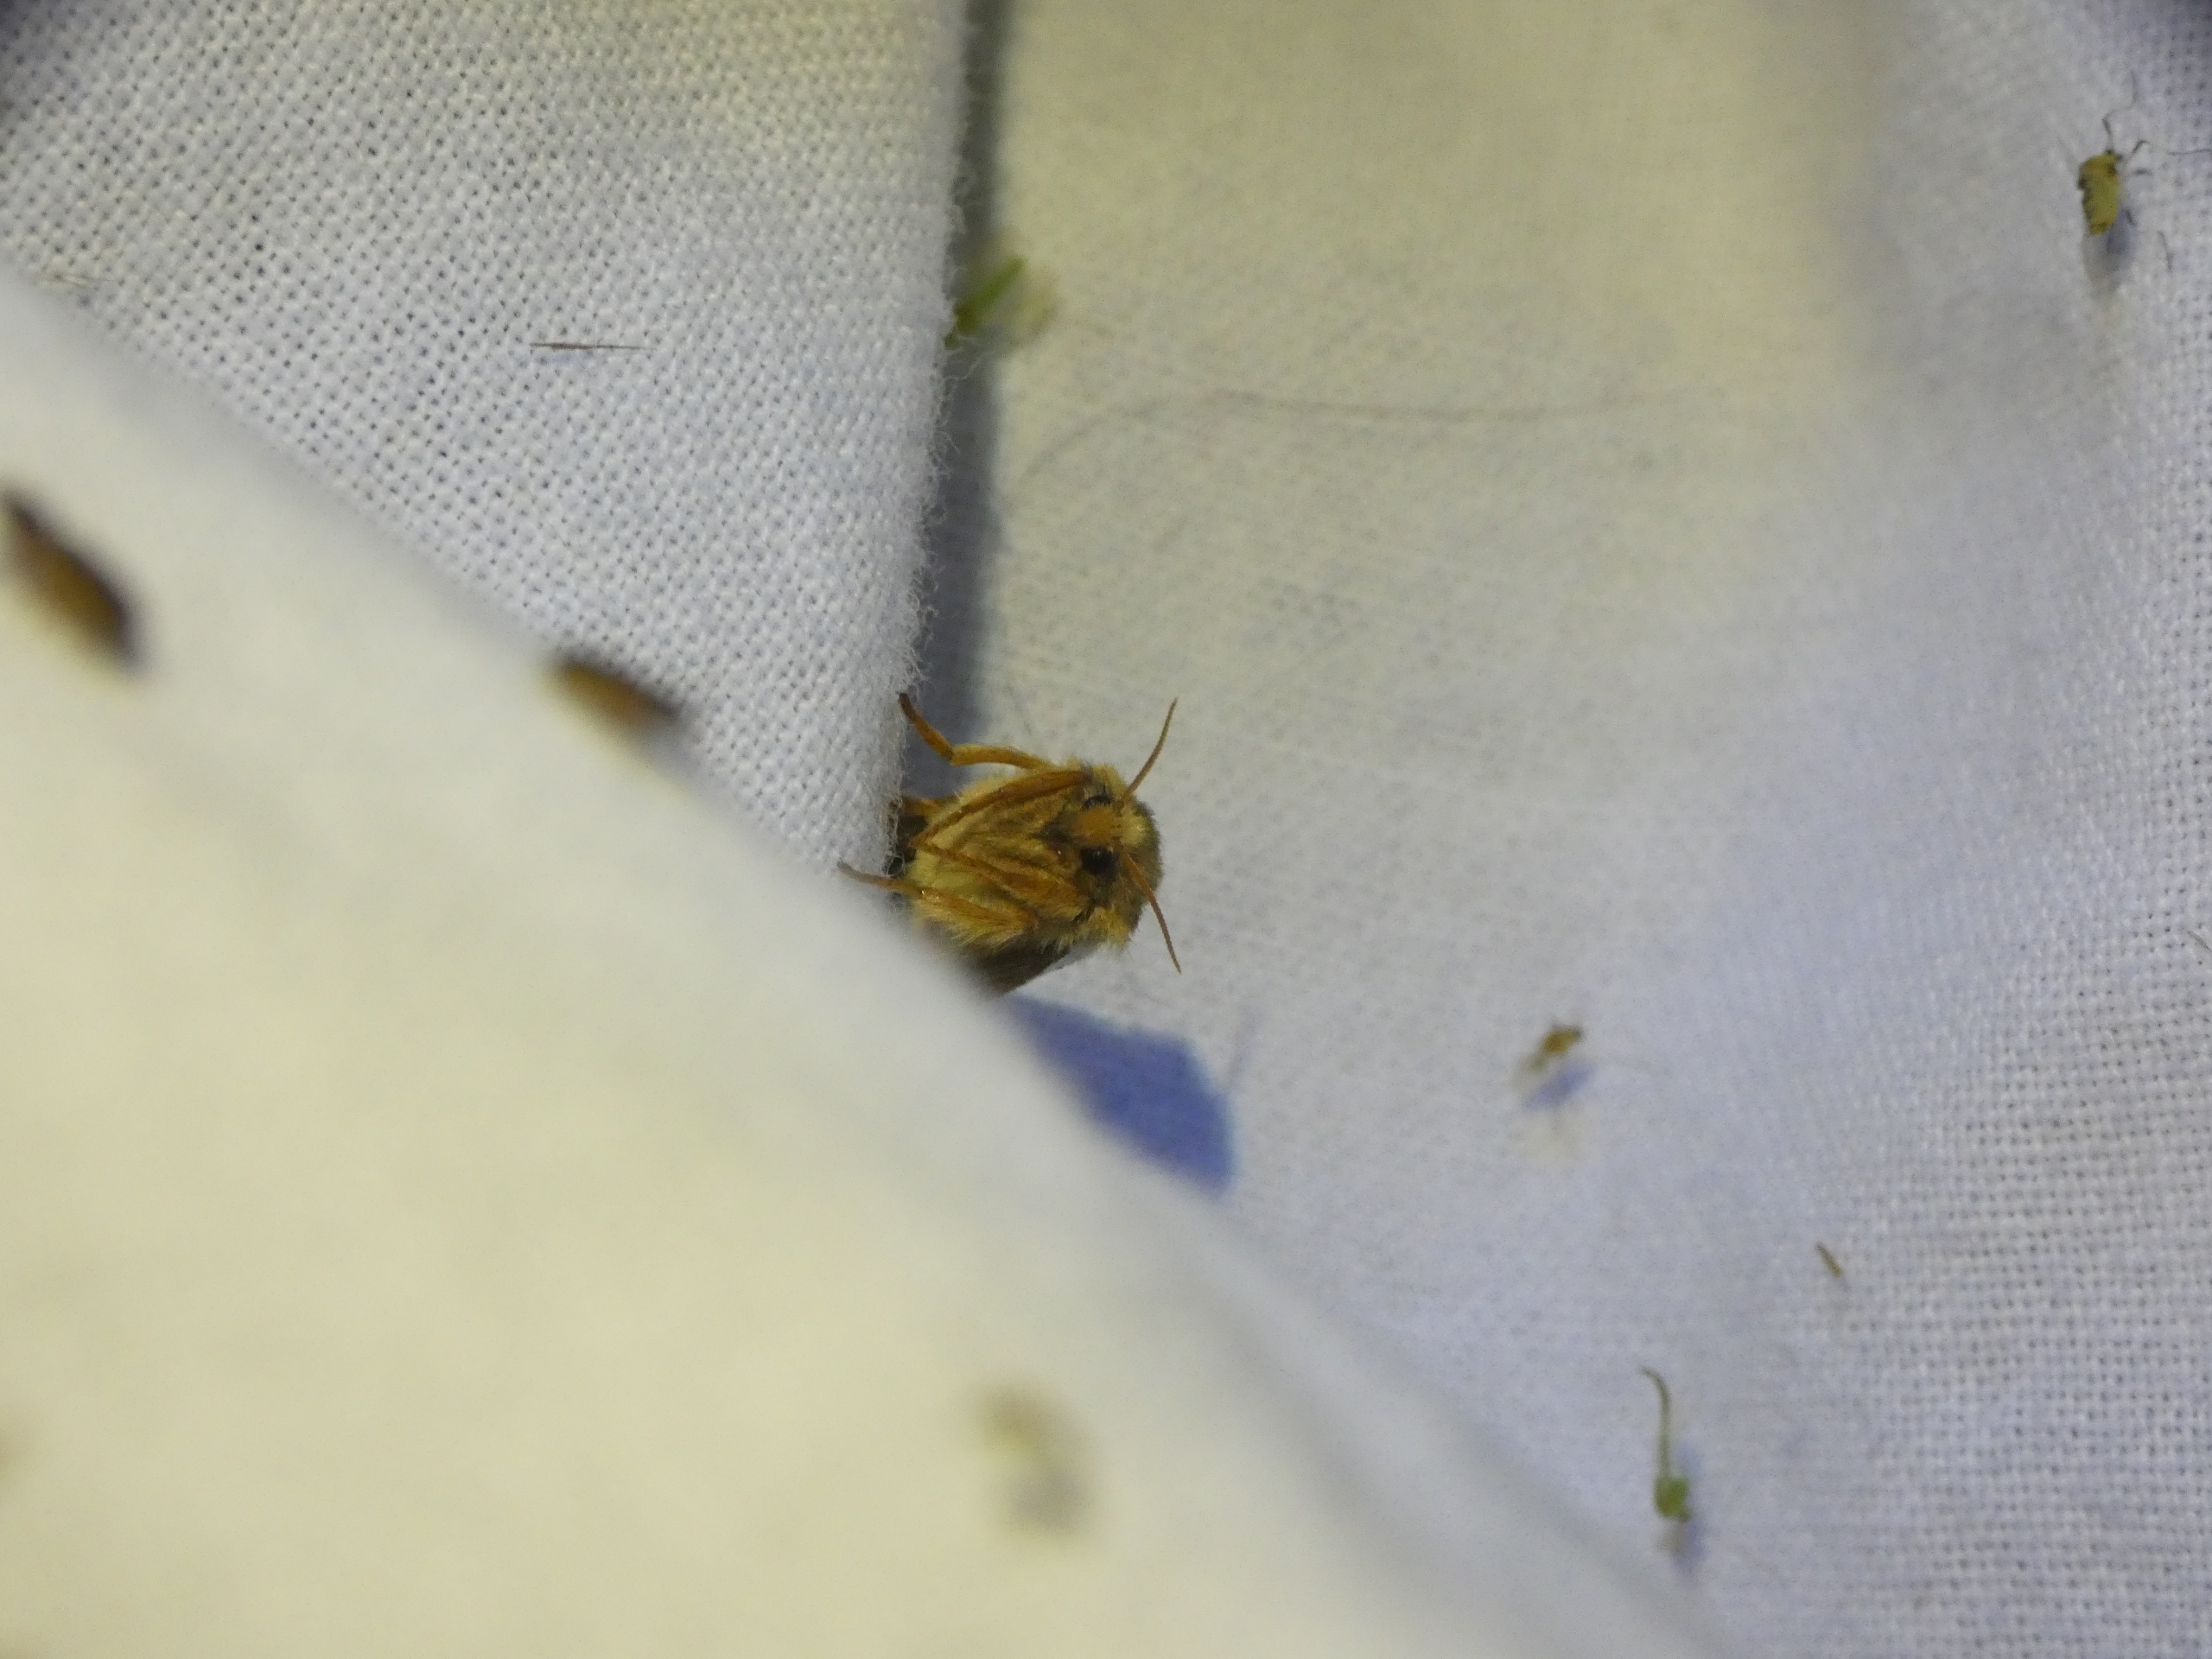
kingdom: Animalia
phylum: Arthropoda
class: Insecta
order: Lepidoptera
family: Hepialidae
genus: Korscheltellus
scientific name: Korscheltellus lupulina
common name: Konvalrodæder
